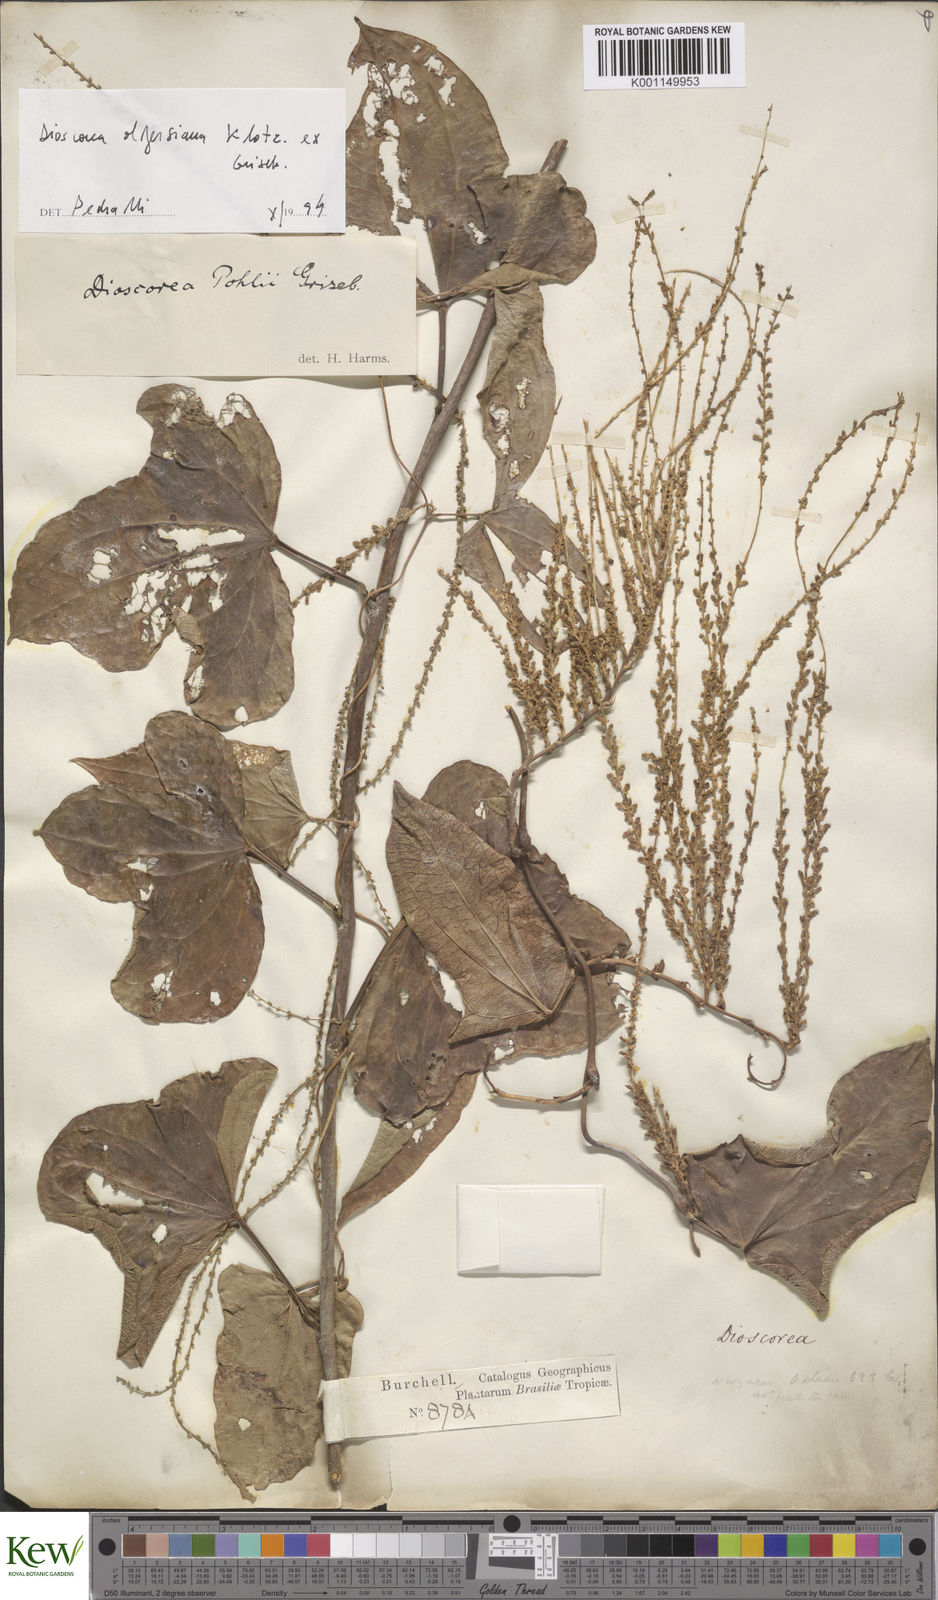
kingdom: Plantae
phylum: Tracheophyta
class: Liliopsida
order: Dioscoreales
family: Dioscoreaceae
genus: Dioscorea
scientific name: Dioscorea pohlii
